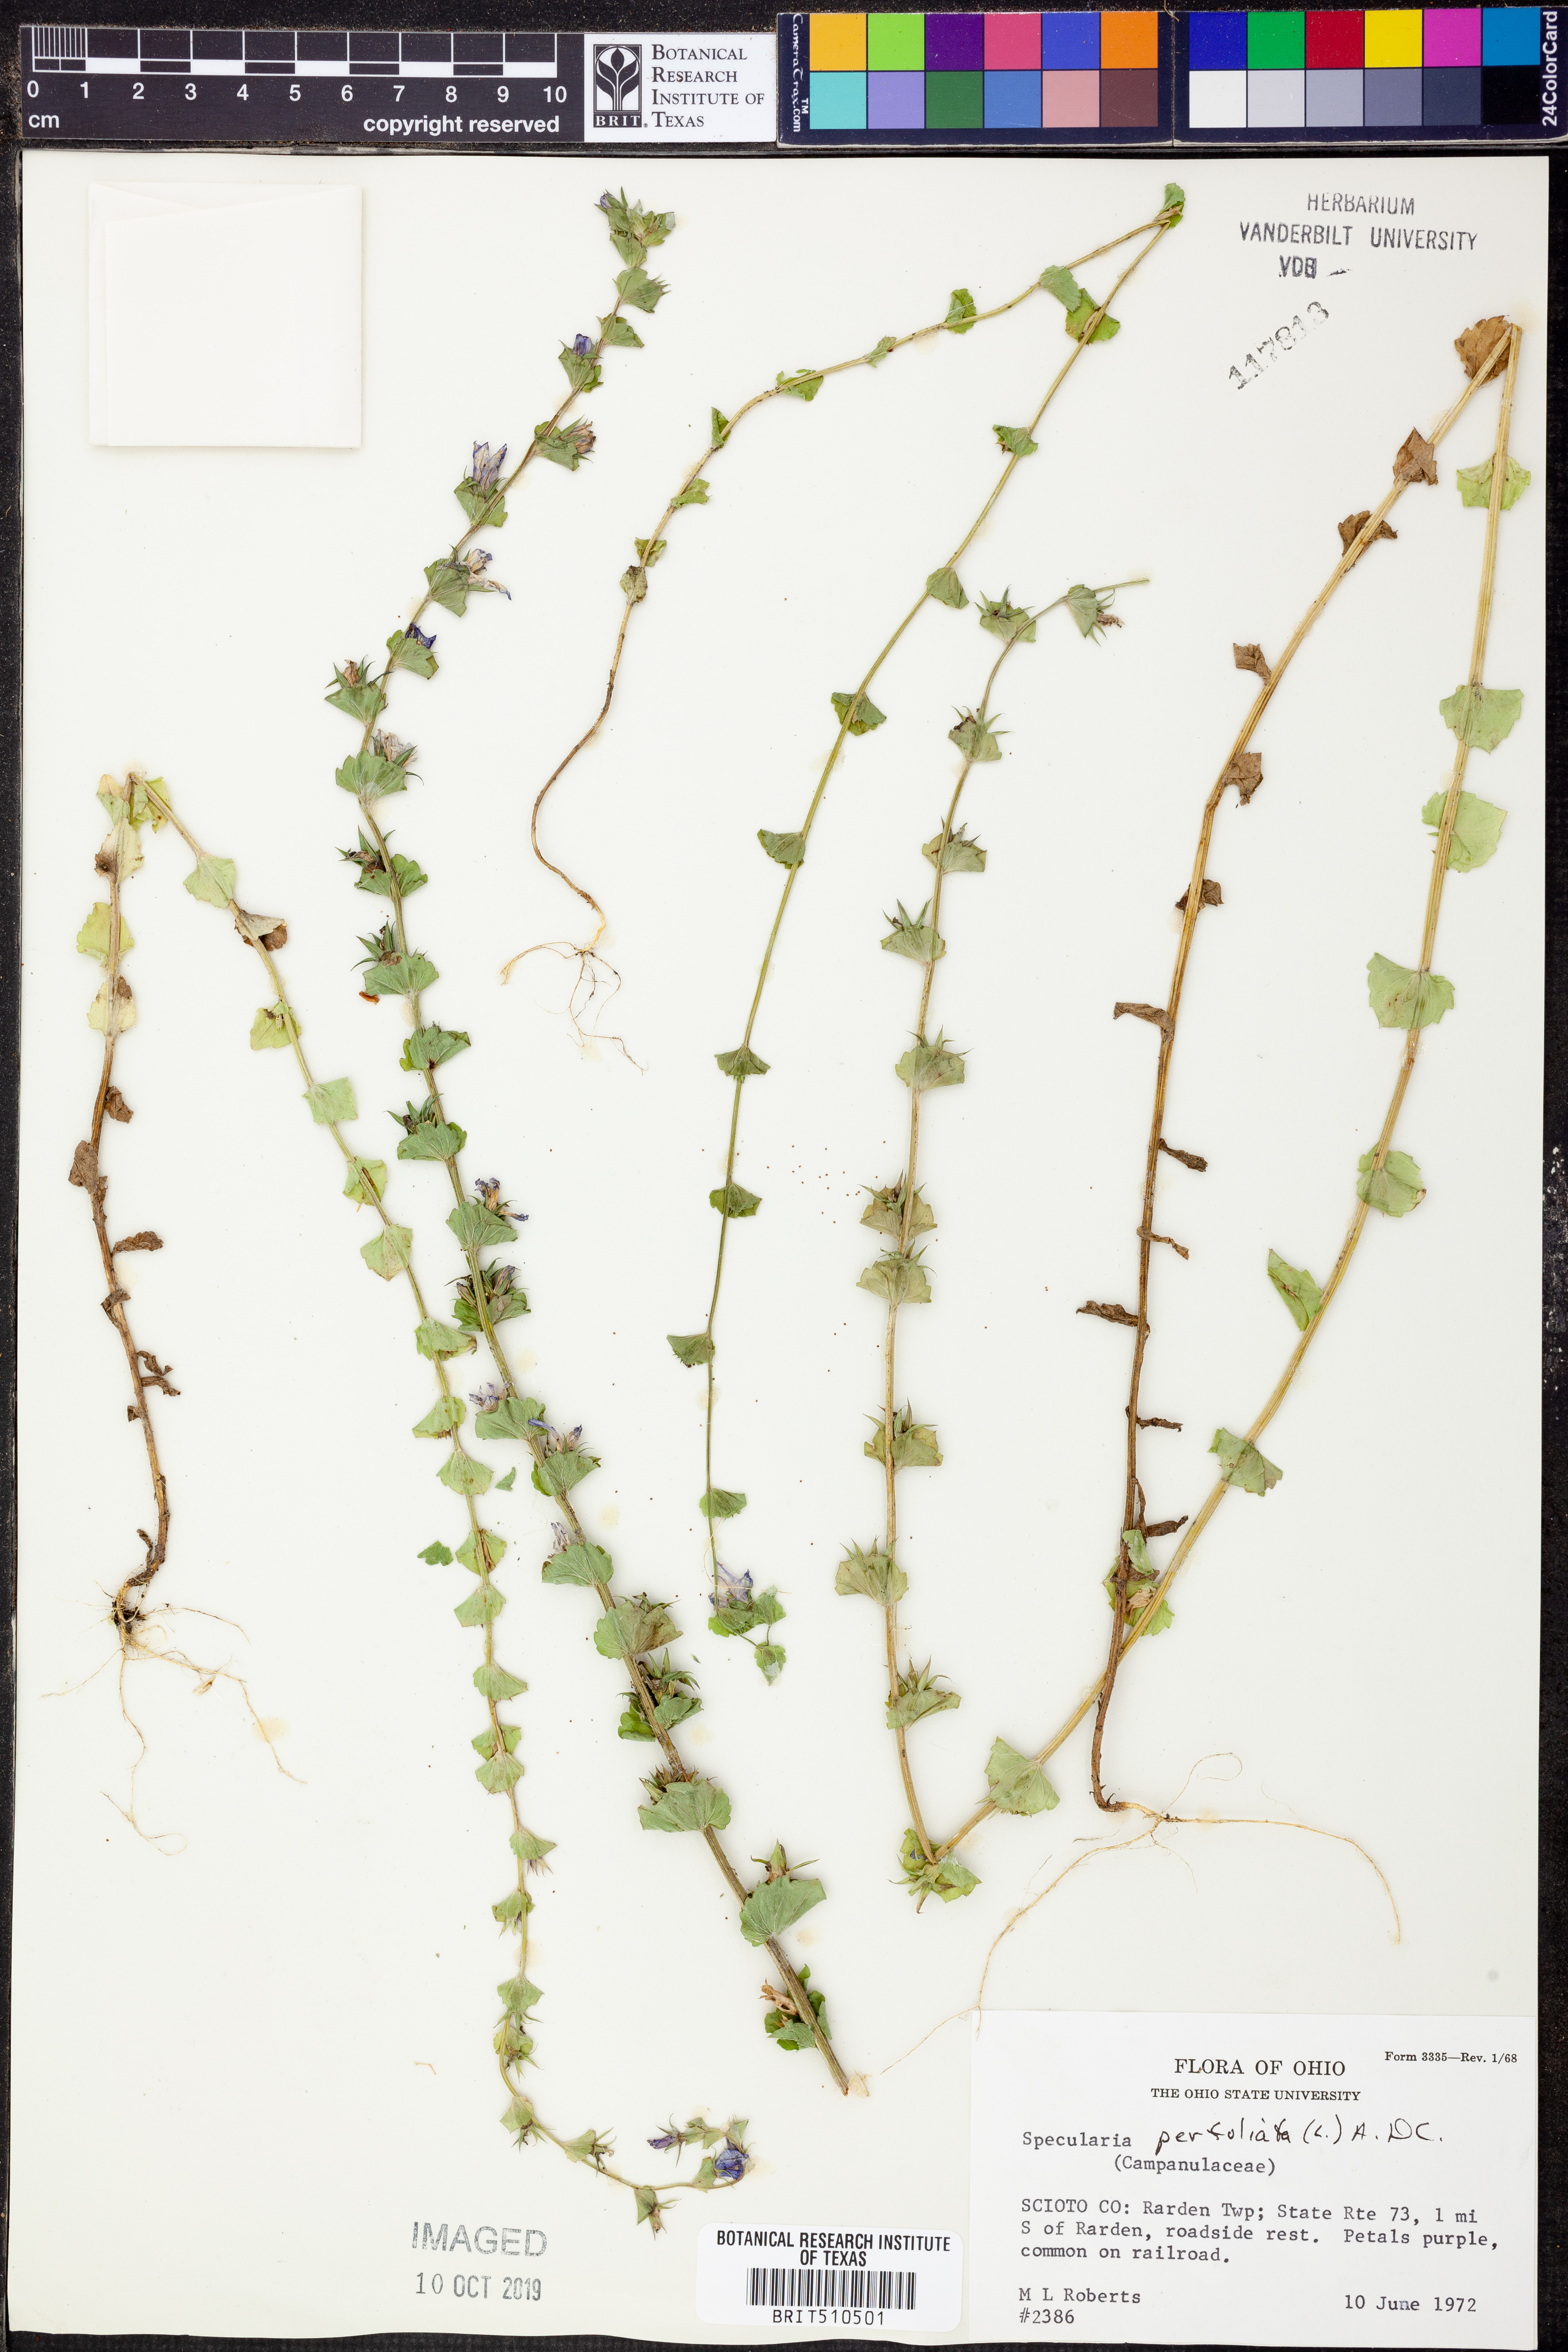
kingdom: Plantae
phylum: Tracheophyta
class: Magnoliopsida
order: Asterales
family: Campanulaceae
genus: Triodanis
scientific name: Triodanis perfoliata
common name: Clasping venus' looking-glass
